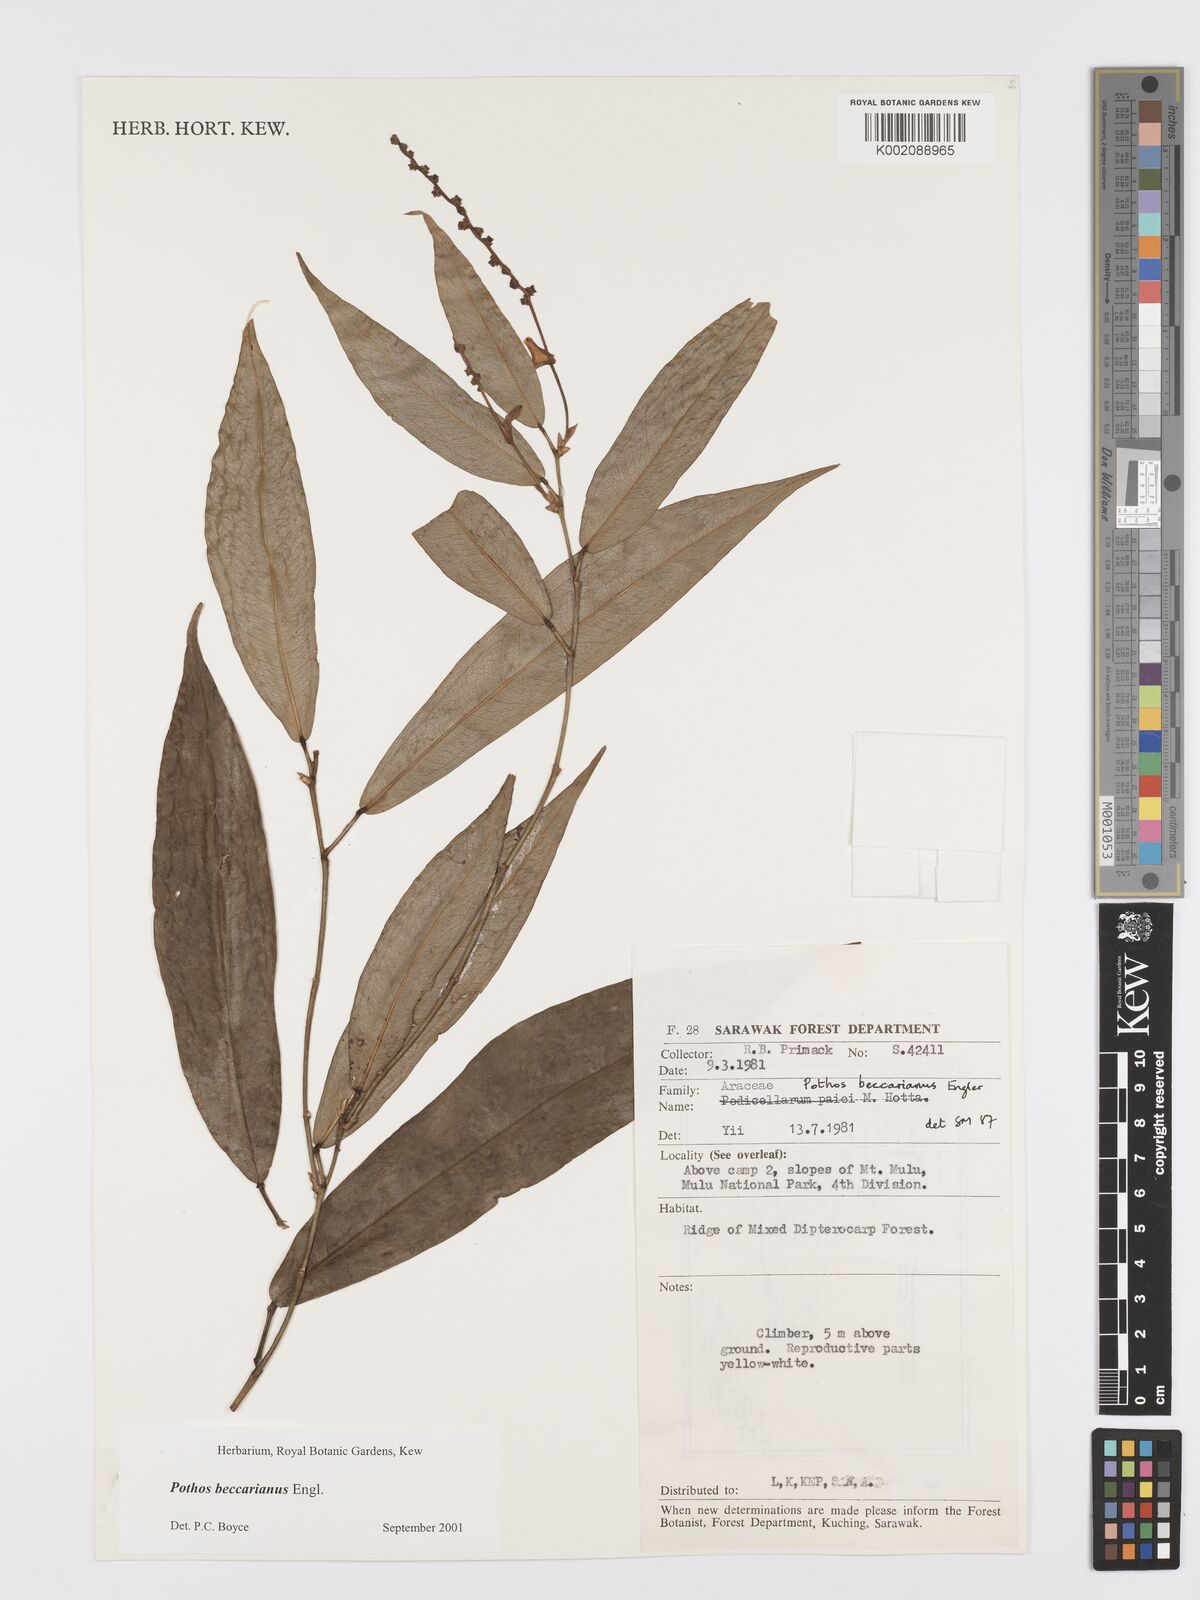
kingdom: Plantae
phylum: Tracheophyta
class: Liliopsida
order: Alismatales
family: Araceae
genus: Pothos
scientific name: Pothos beccarianus
